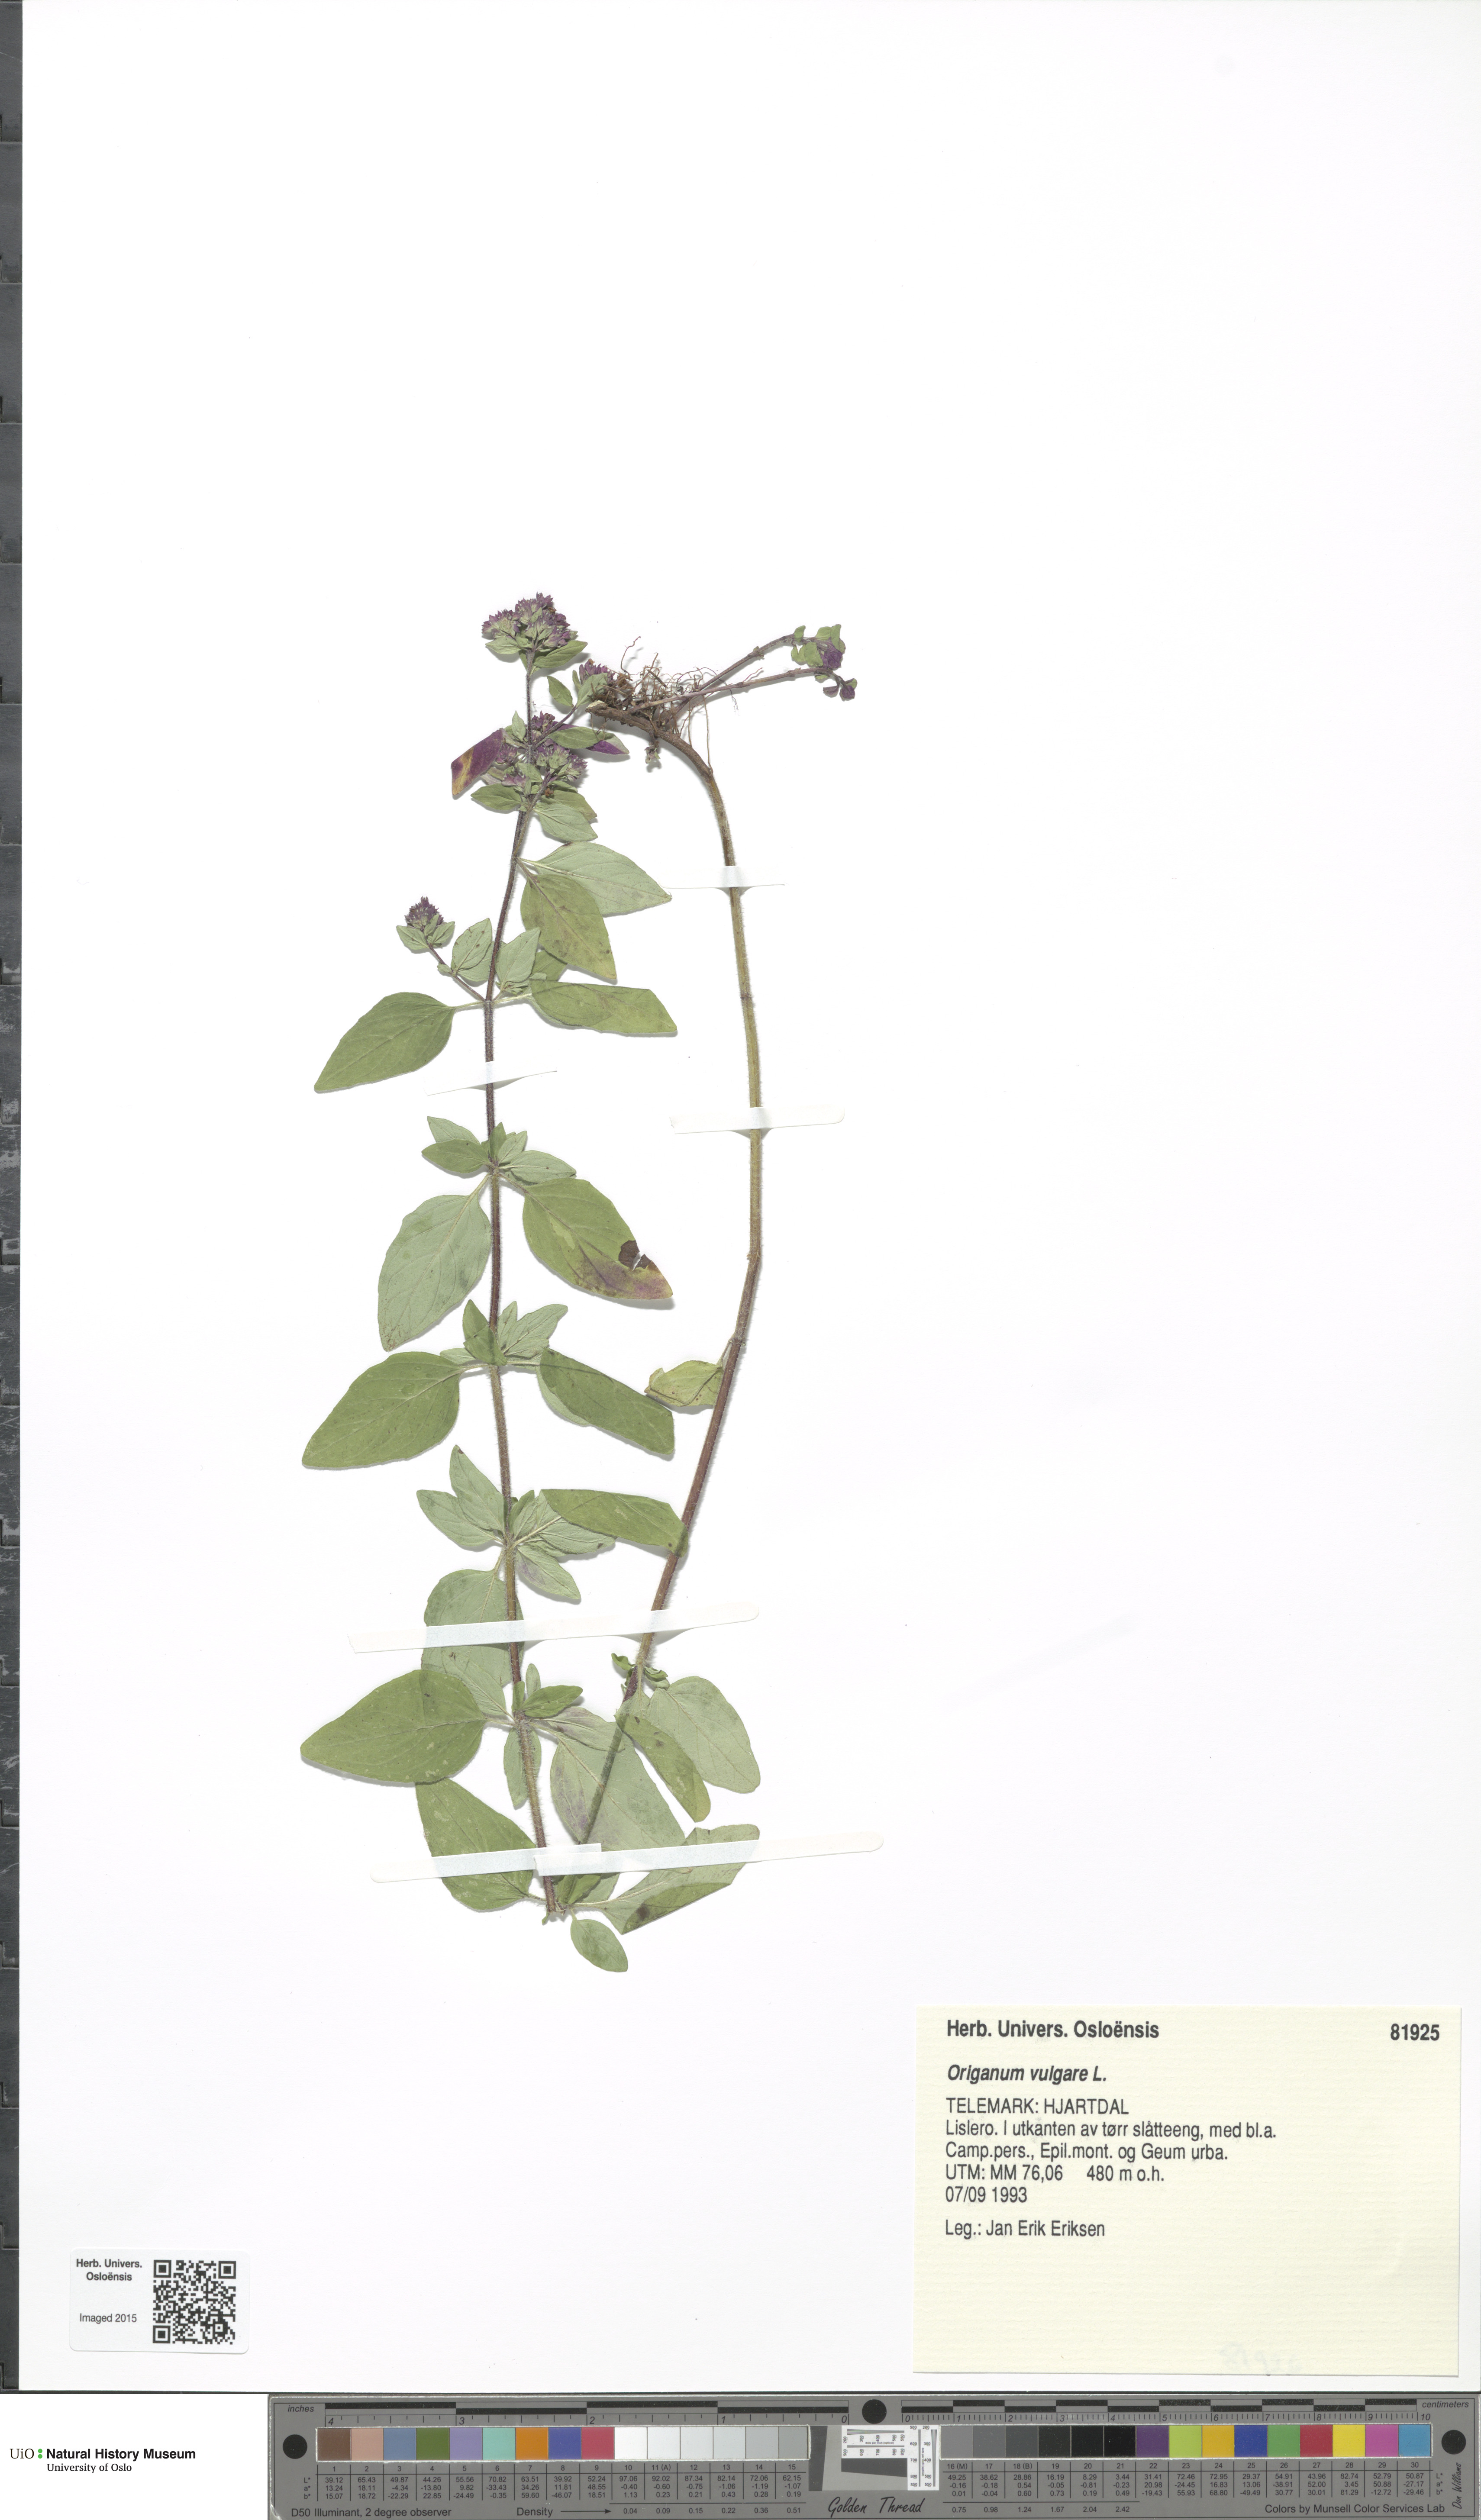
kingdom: Plantae
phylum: Tracheophyta
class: Magnoliopsida
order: Lamiales
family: Lamiaceae
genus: Origanum
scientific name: Origanum vulgare
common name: Wild marjoram
